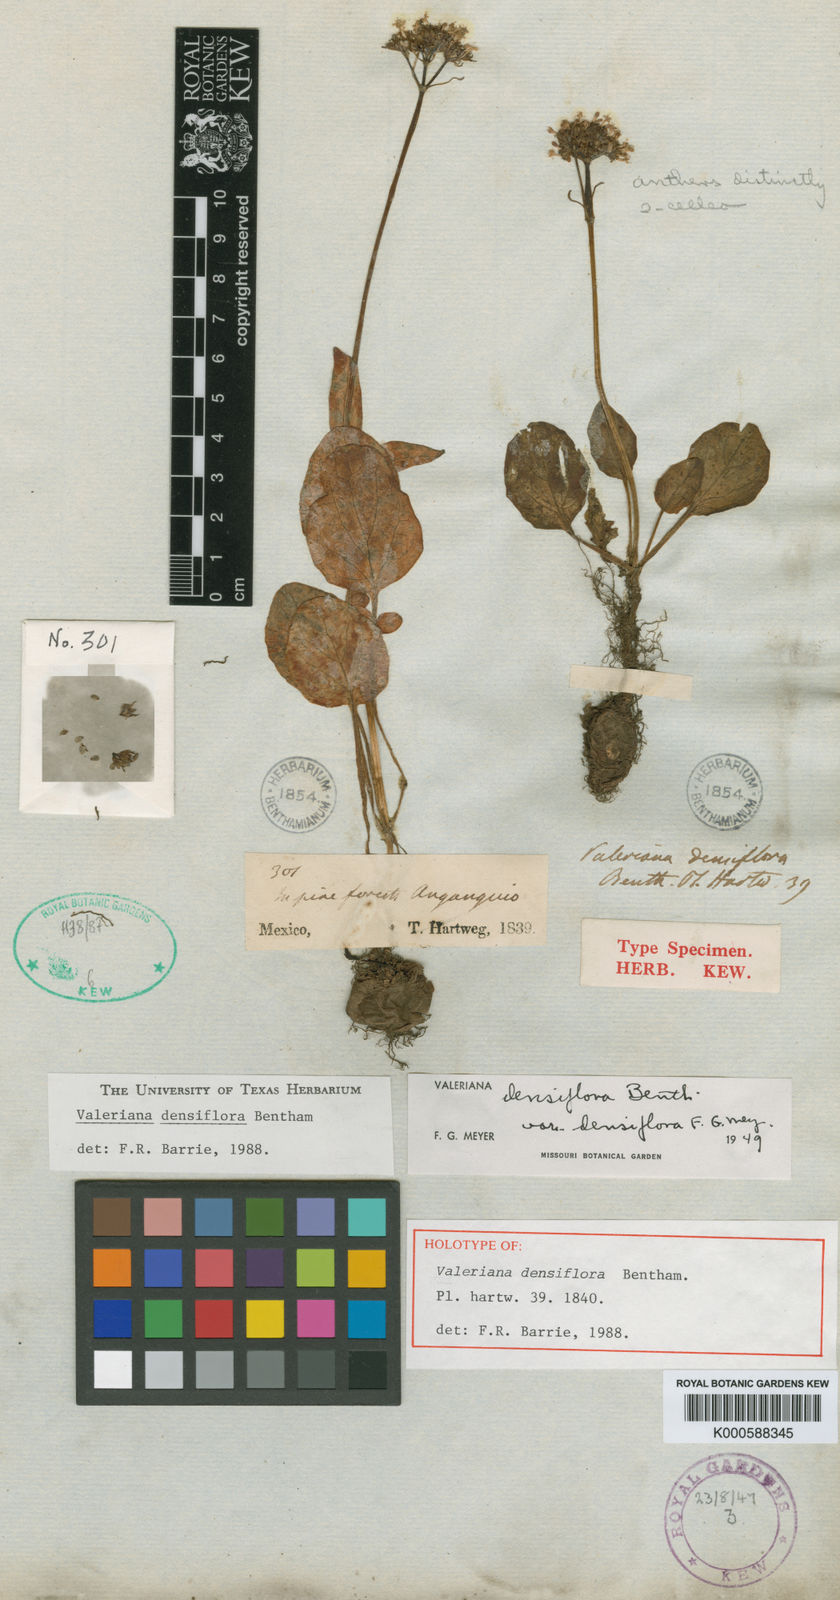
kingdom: Plantae
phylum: Tracheophyta
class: Magnoliopsida
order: Dipsacales
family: Caprifoliaceae
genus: Valeriana
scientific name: Valeriana densiflora
